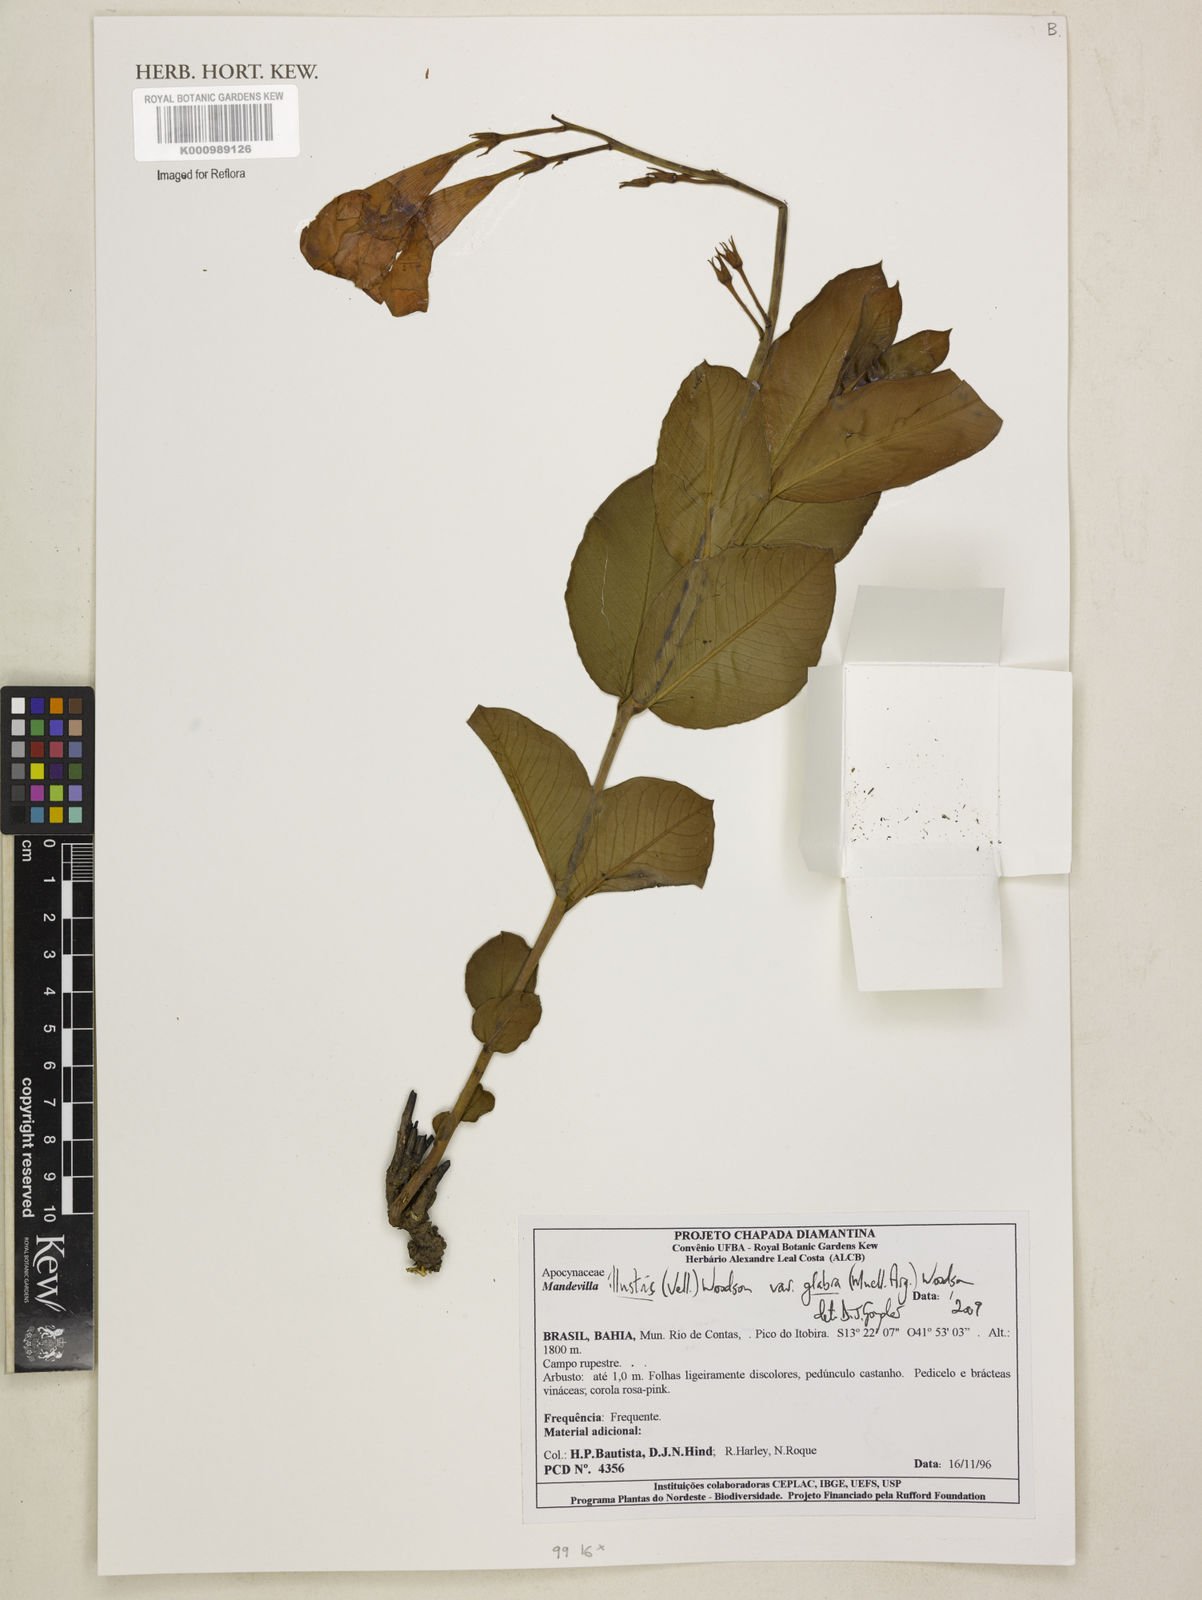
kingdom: Plantae
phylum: Tracheophyta
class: Magnoliopsida
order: Gentianales
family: Apocynaceae
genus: Mandevilla
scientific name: Mandevilla
